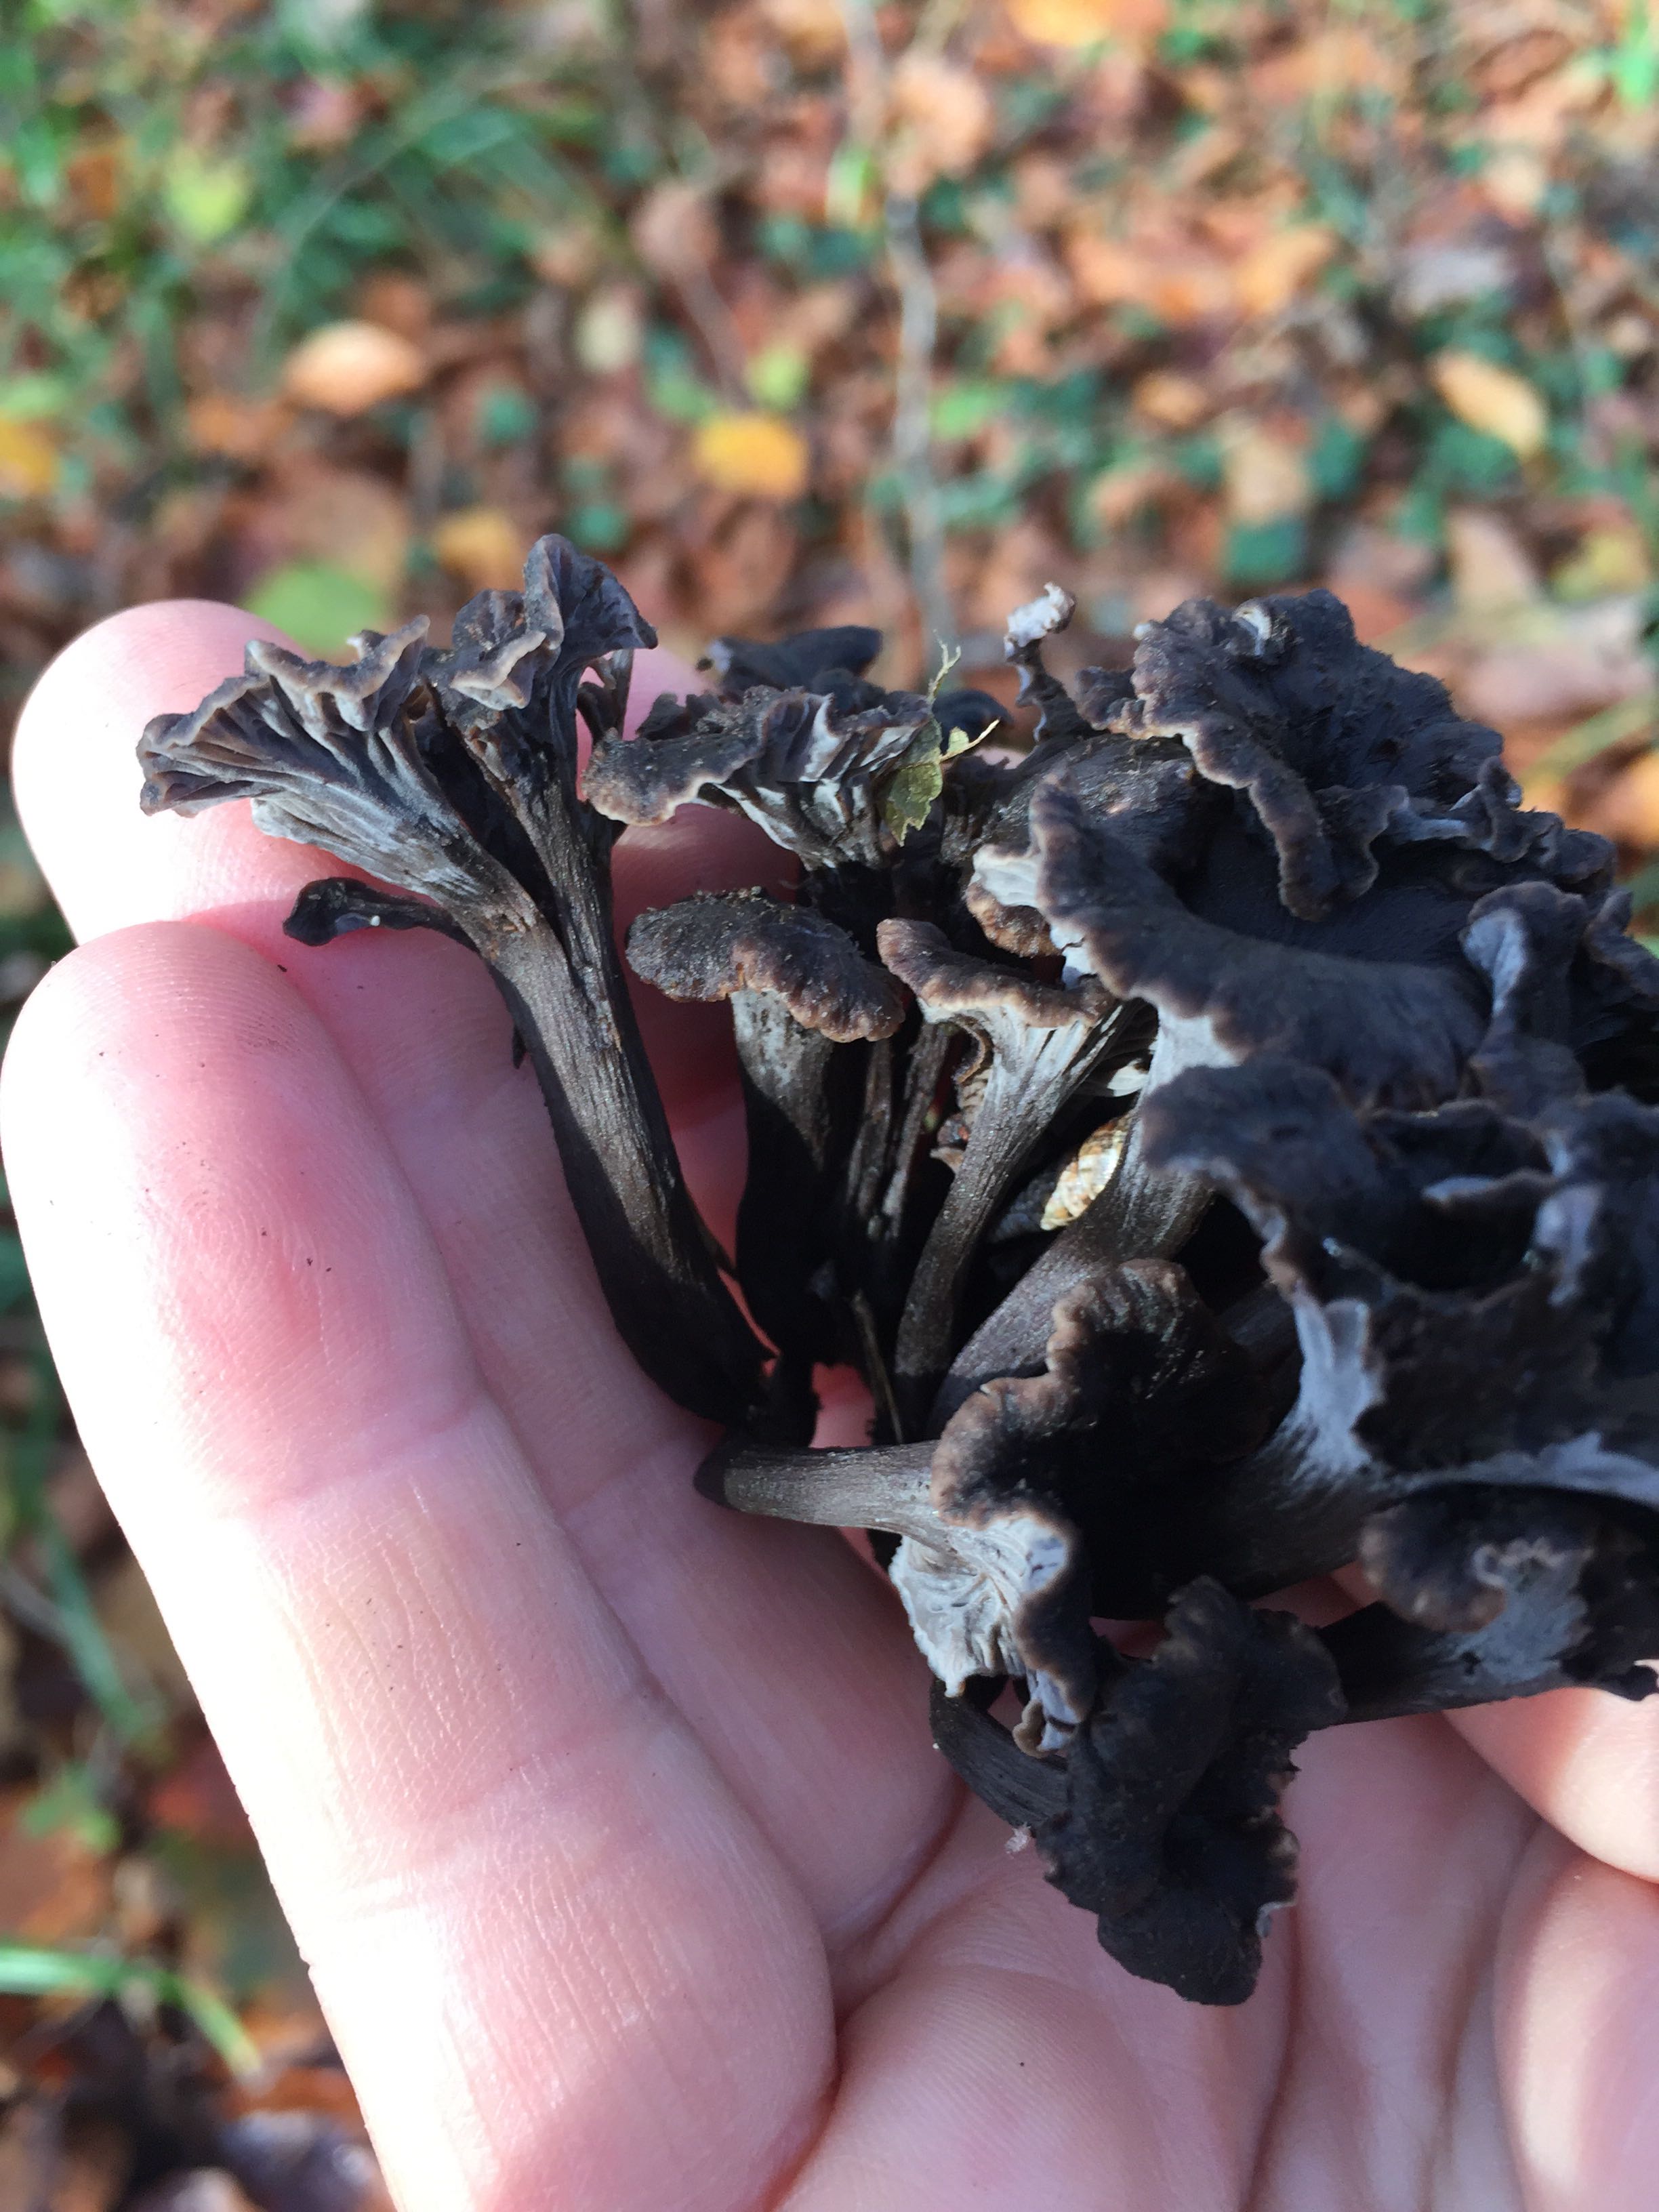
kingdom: Fungi
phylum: Basidiomycota
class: Agaricomycetes
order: Cantharellales
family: Hydnaceae
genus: Cantharellus
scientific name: Cantharellus cinereus
